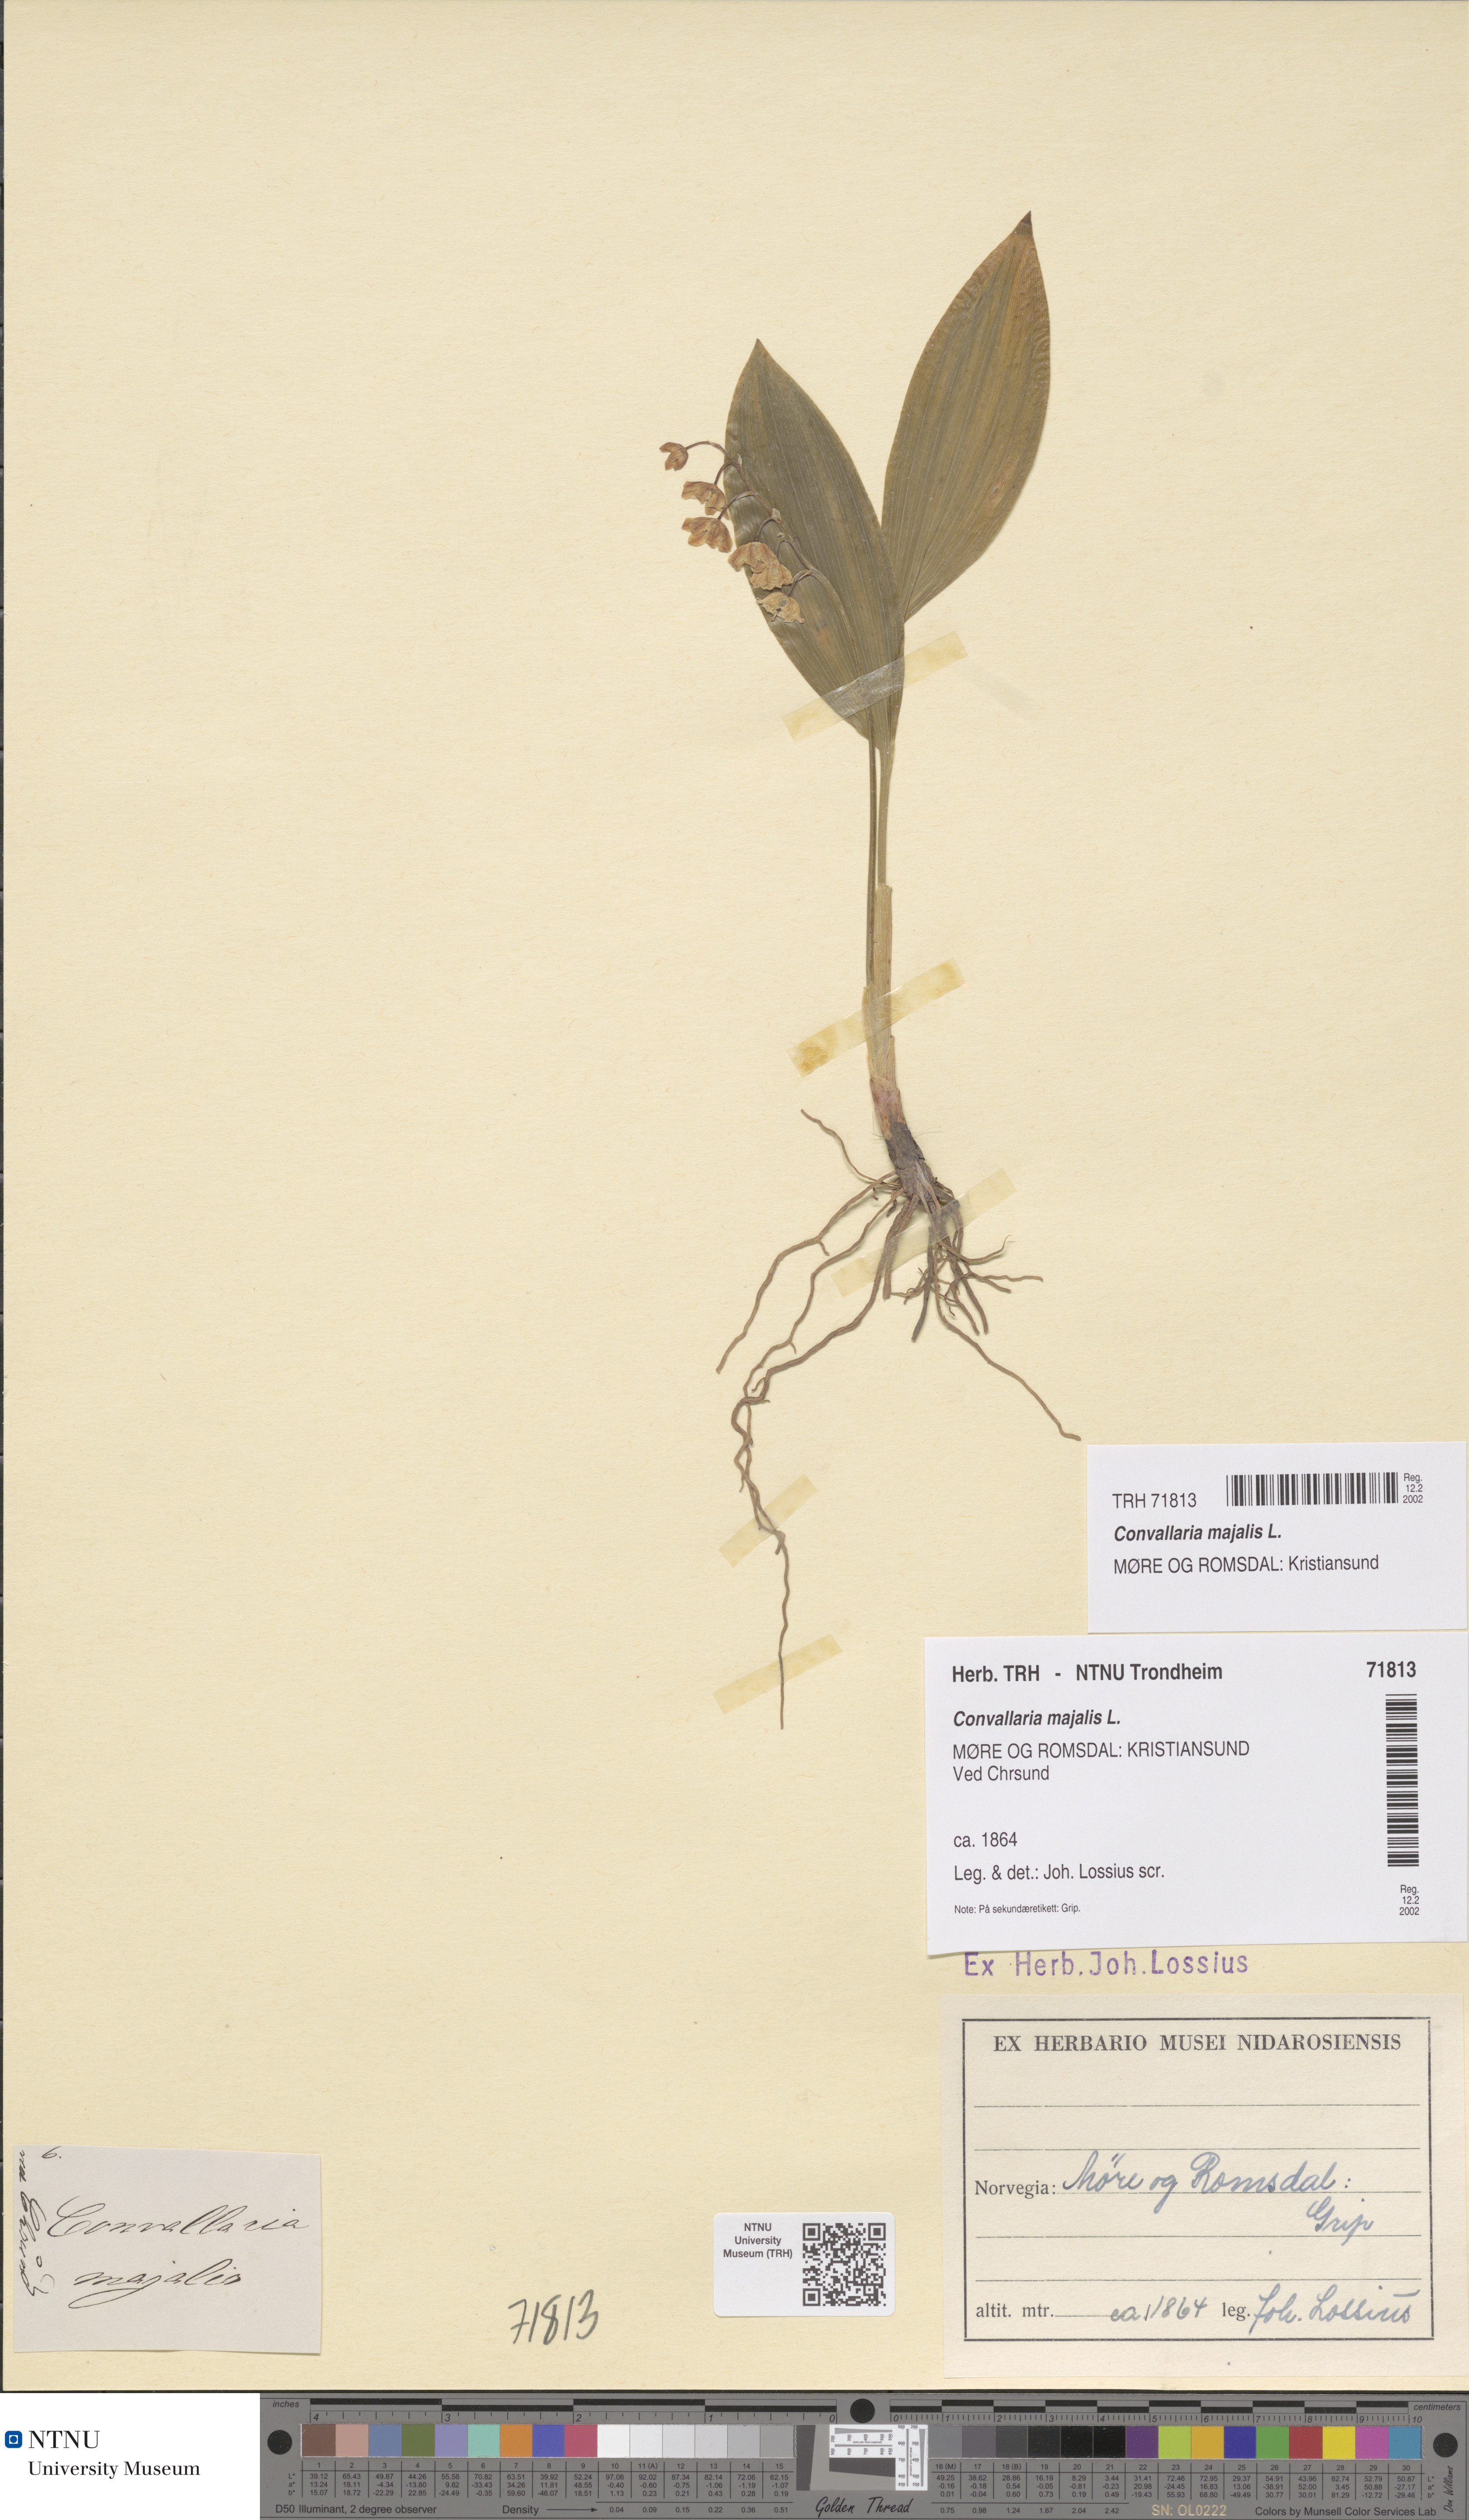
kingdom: Plantae
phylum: Tracheophyta
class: Liliopsida
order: Asparagales
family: Asparagaceae
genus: Convallaria
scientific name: Convallaria majalis
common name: Lily-of-the-valley
